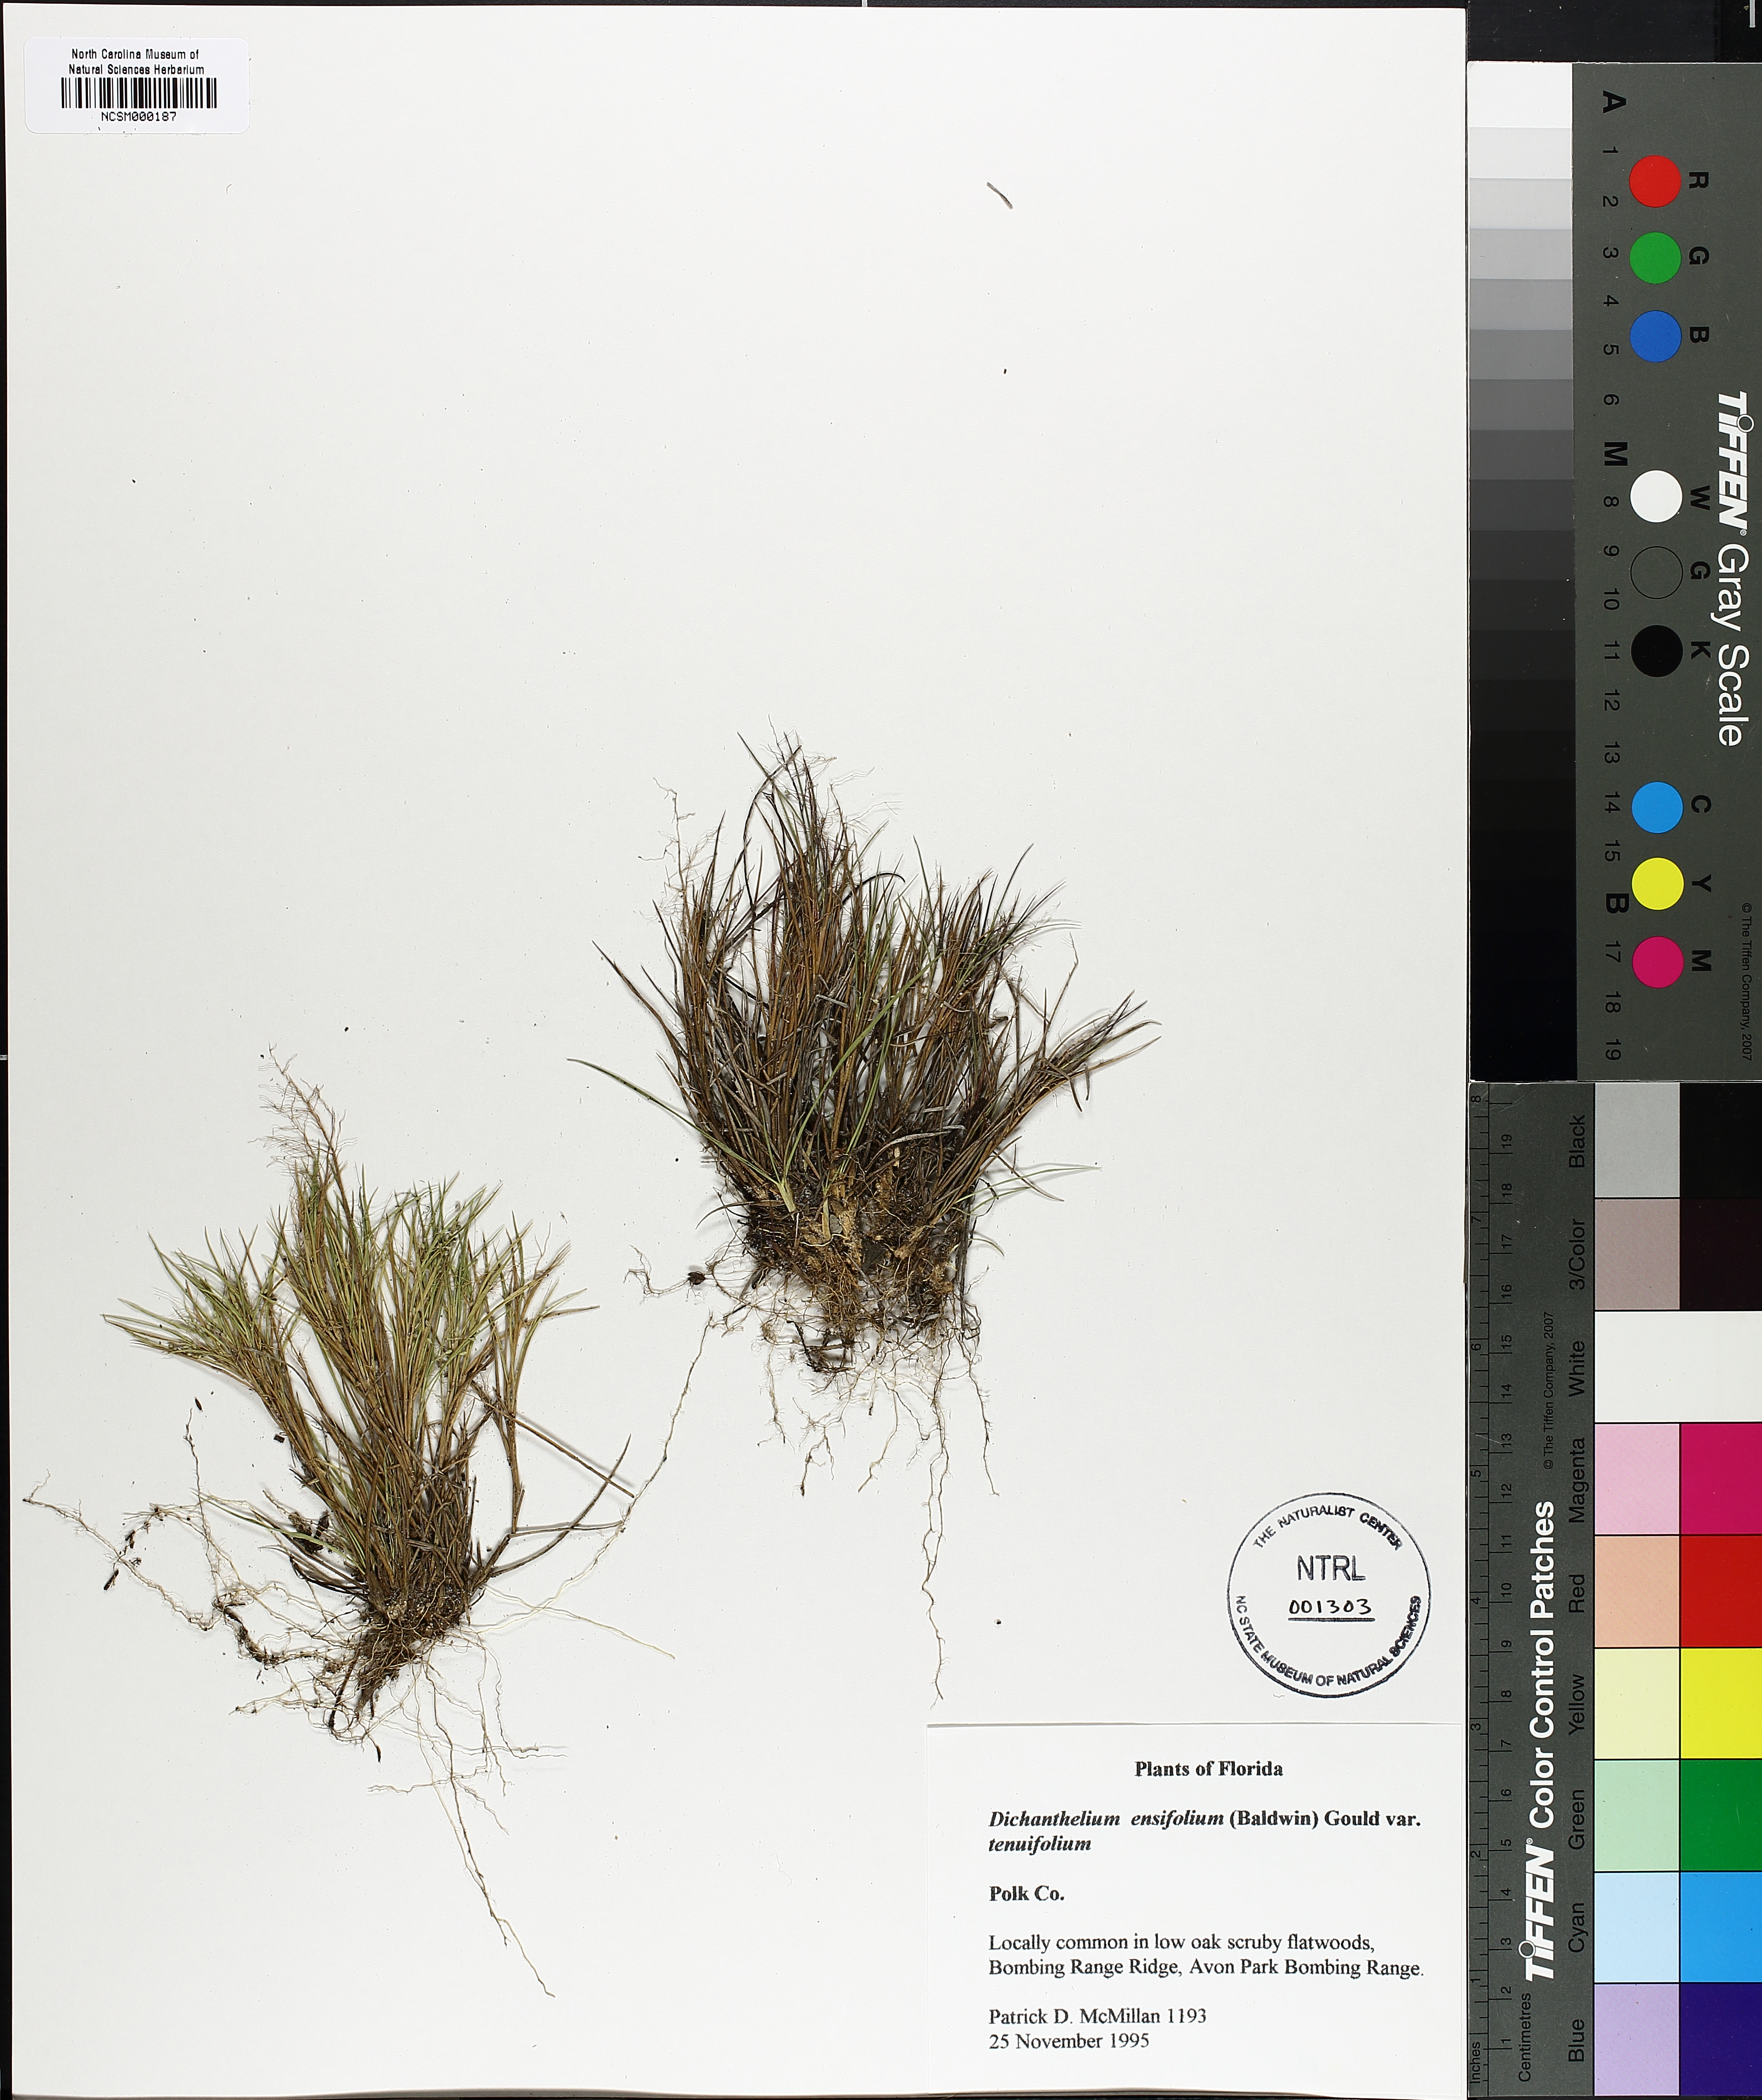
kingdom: Plantae
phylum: Tracheophyta
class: Liliopsida
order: Poales
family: Poaceae
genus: Dichanthelium
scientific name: Dichanthelium ensifolium
